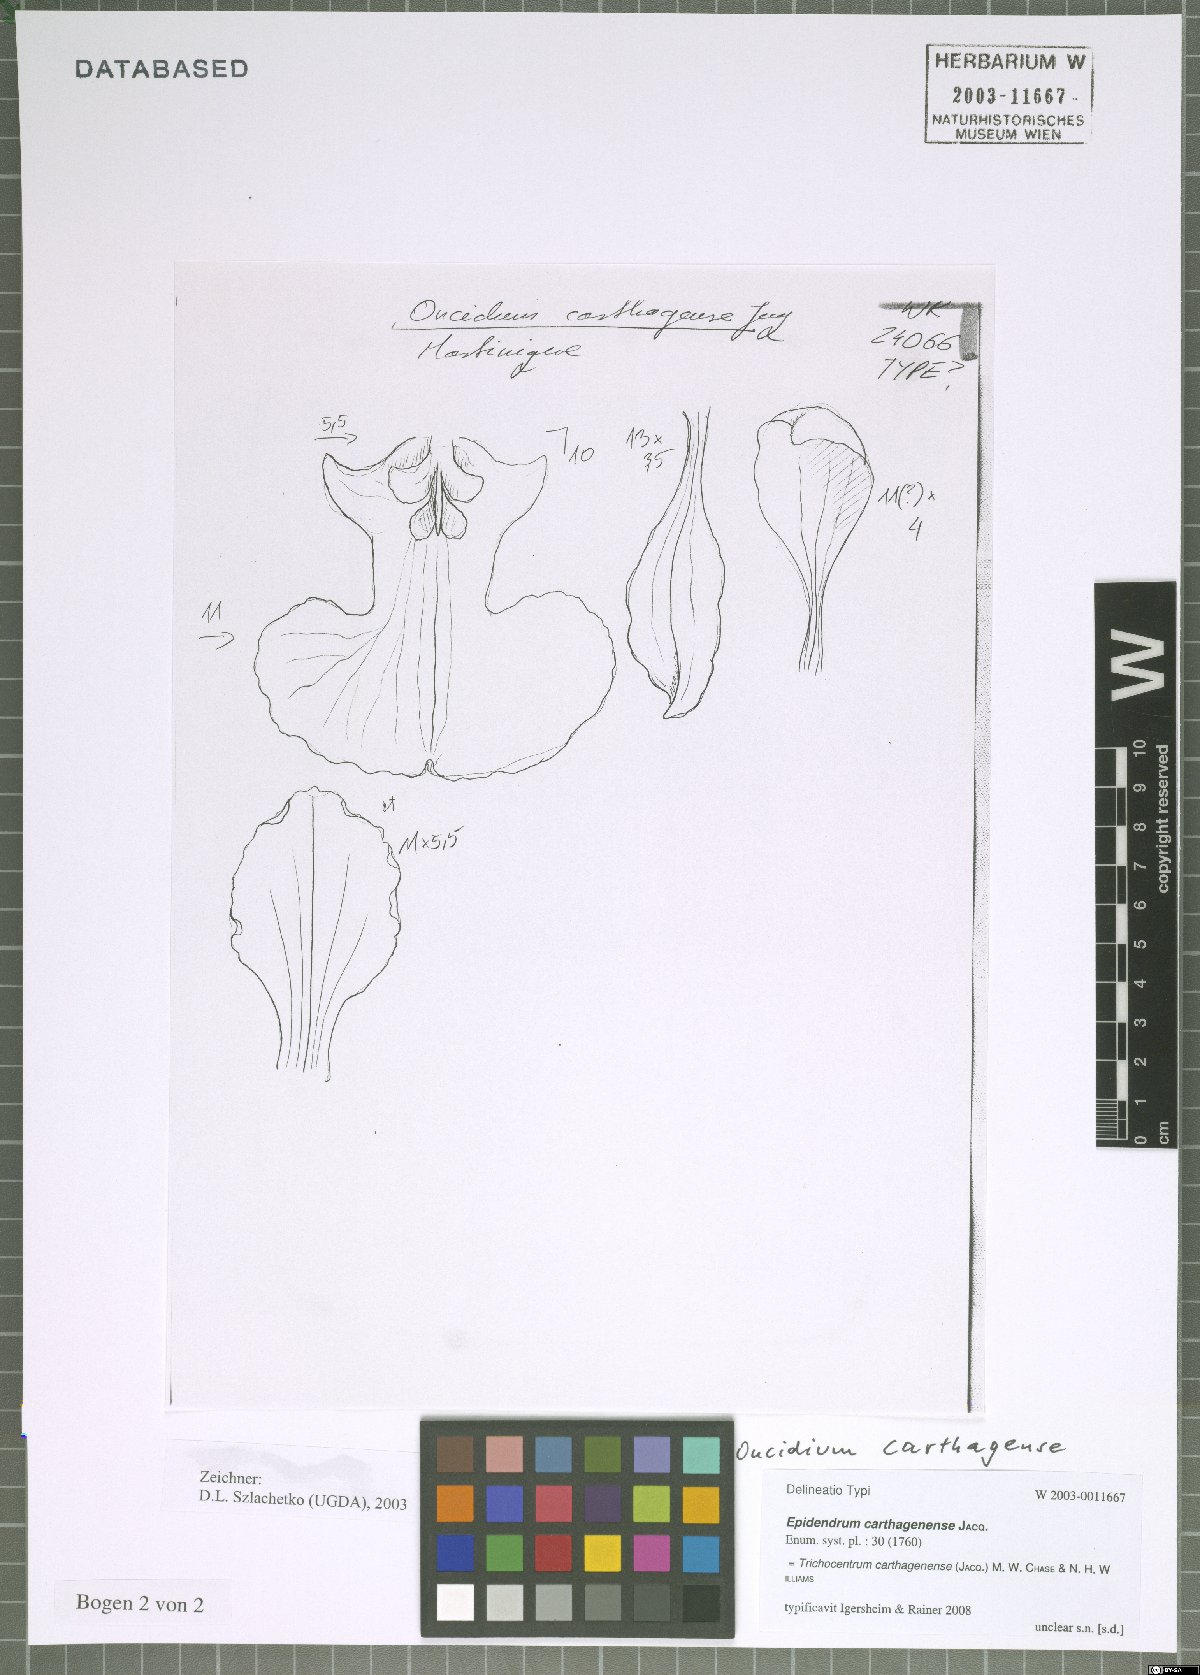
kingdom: Plantae
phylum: Tracheophyta
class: Liliopsida
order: Asparagales
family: Orchidaceae
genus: Trichocentrum
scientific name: Trichocentrum luridum
